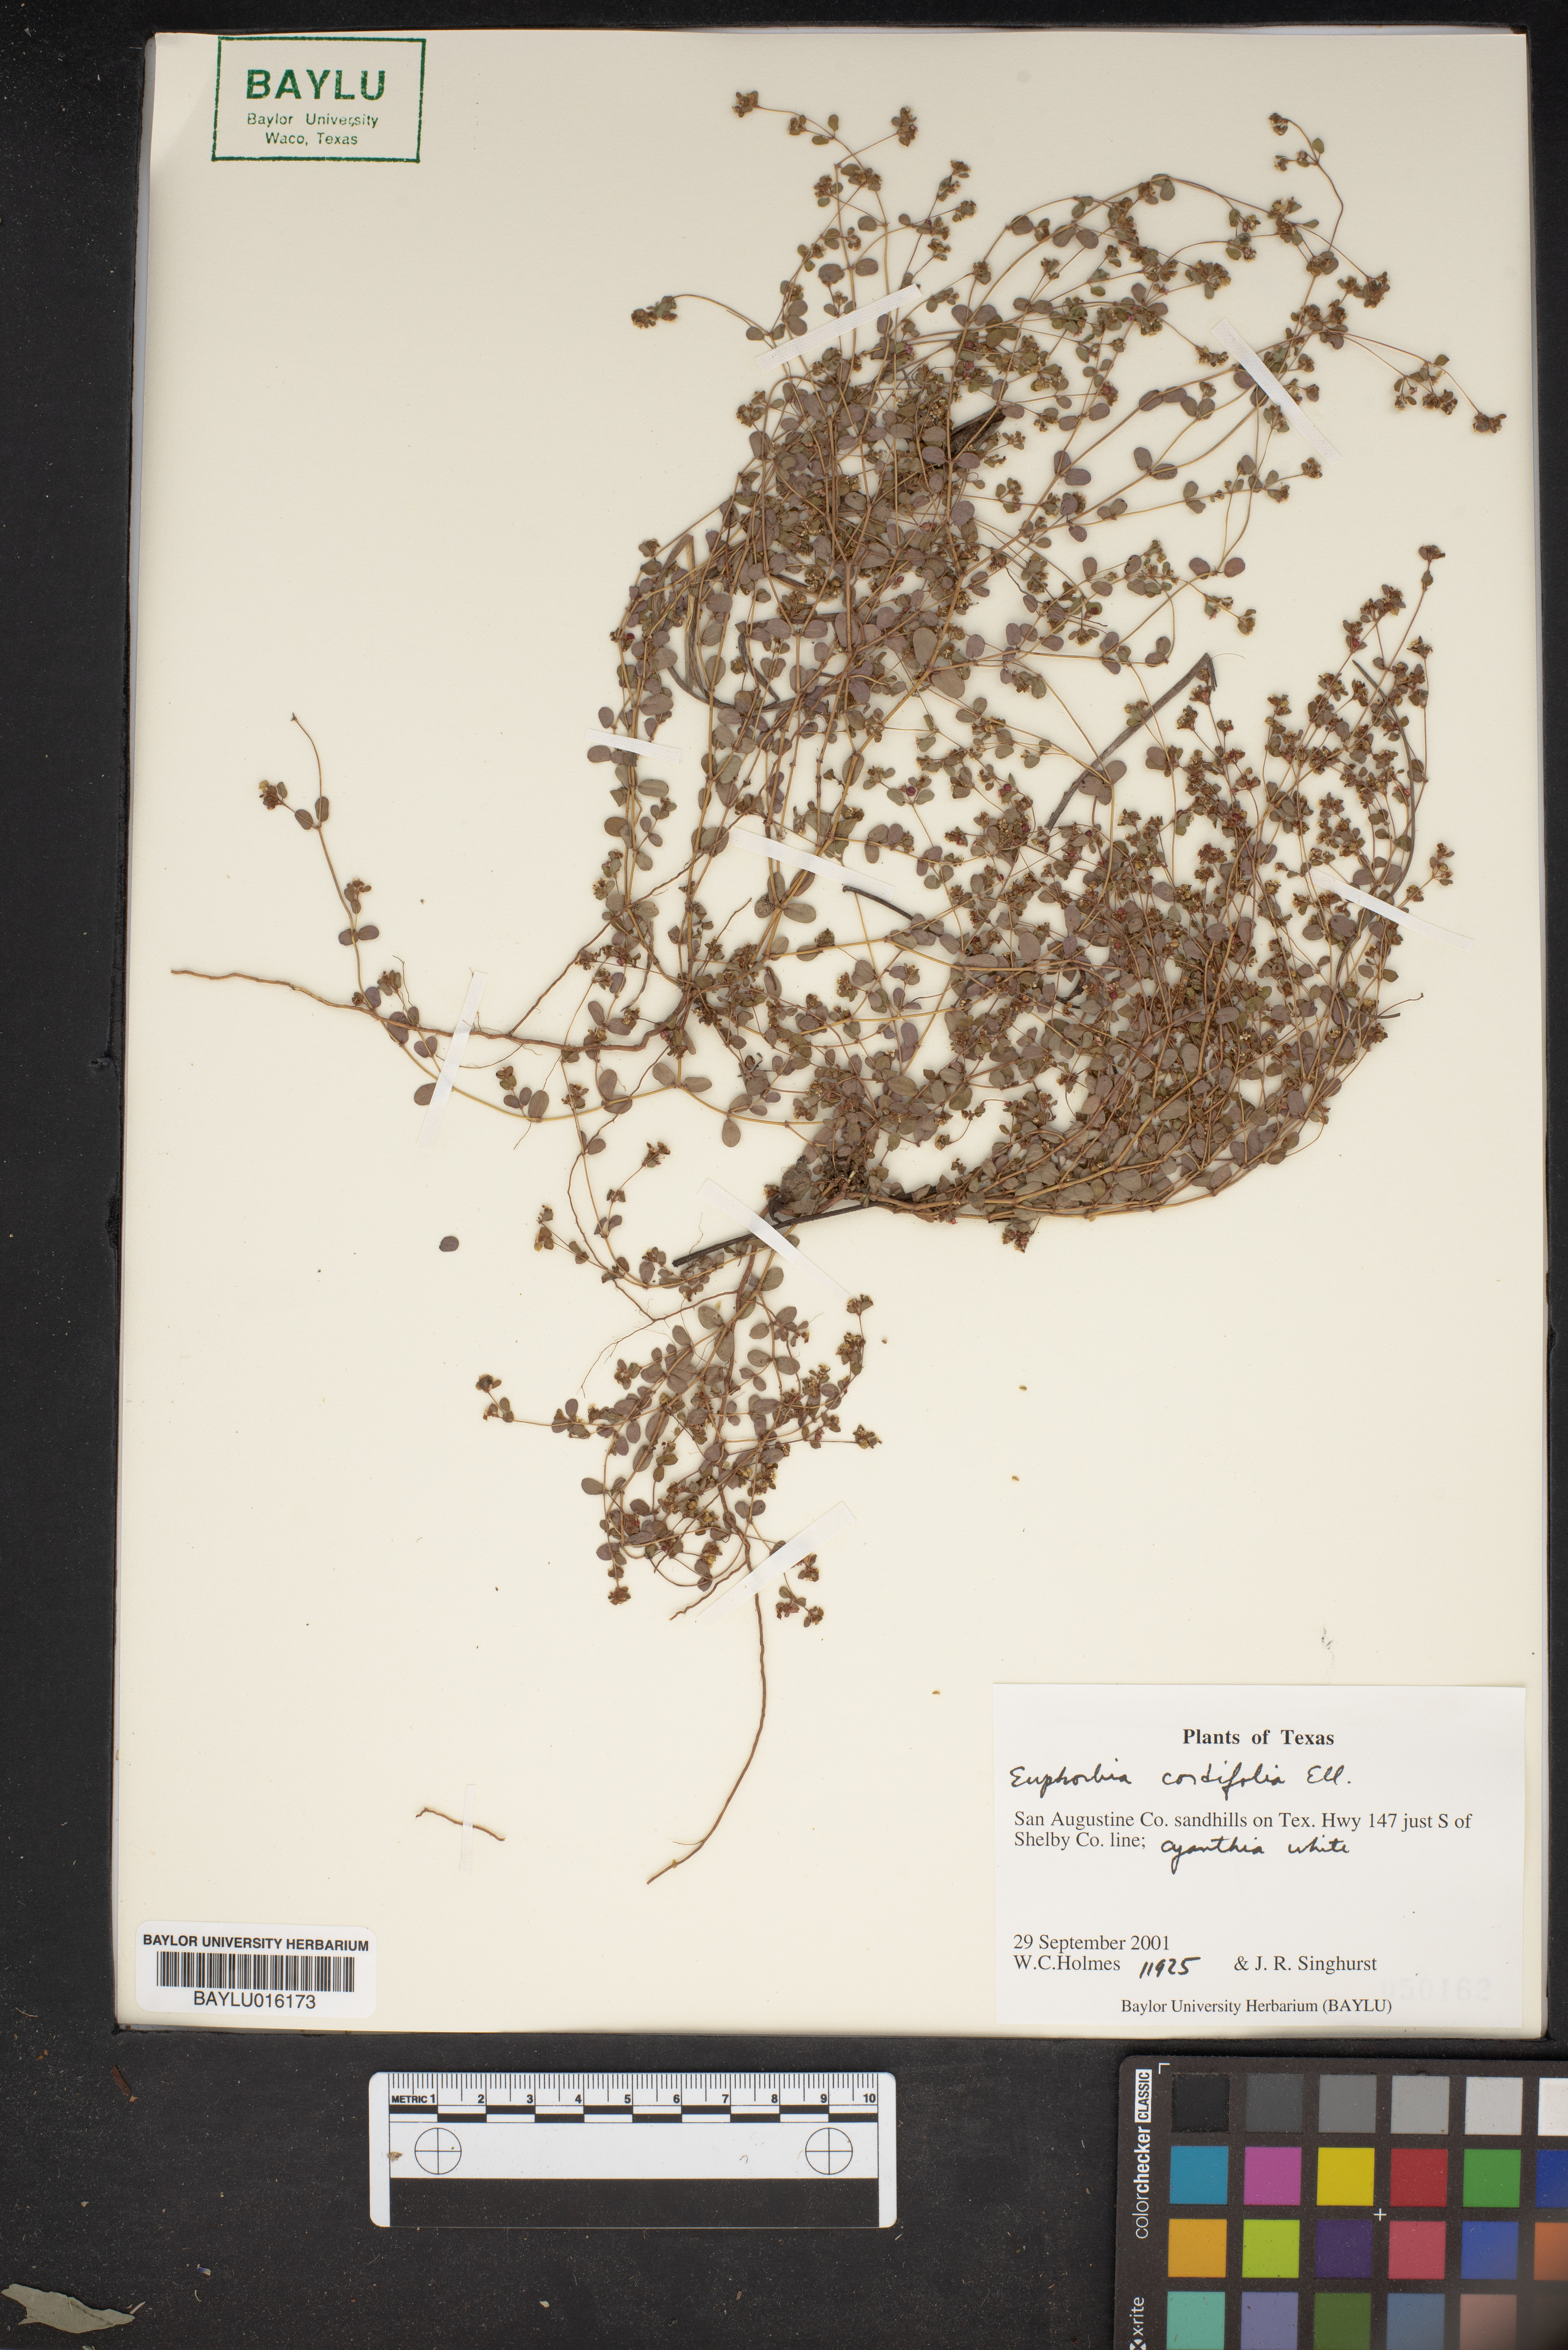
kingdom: Plantae
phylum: Tracheophyta
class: Magnoliopsida
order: Malpighiales
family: Euphorbiaceae
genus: Euphorbia
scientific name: Euphorbia cordifolia
